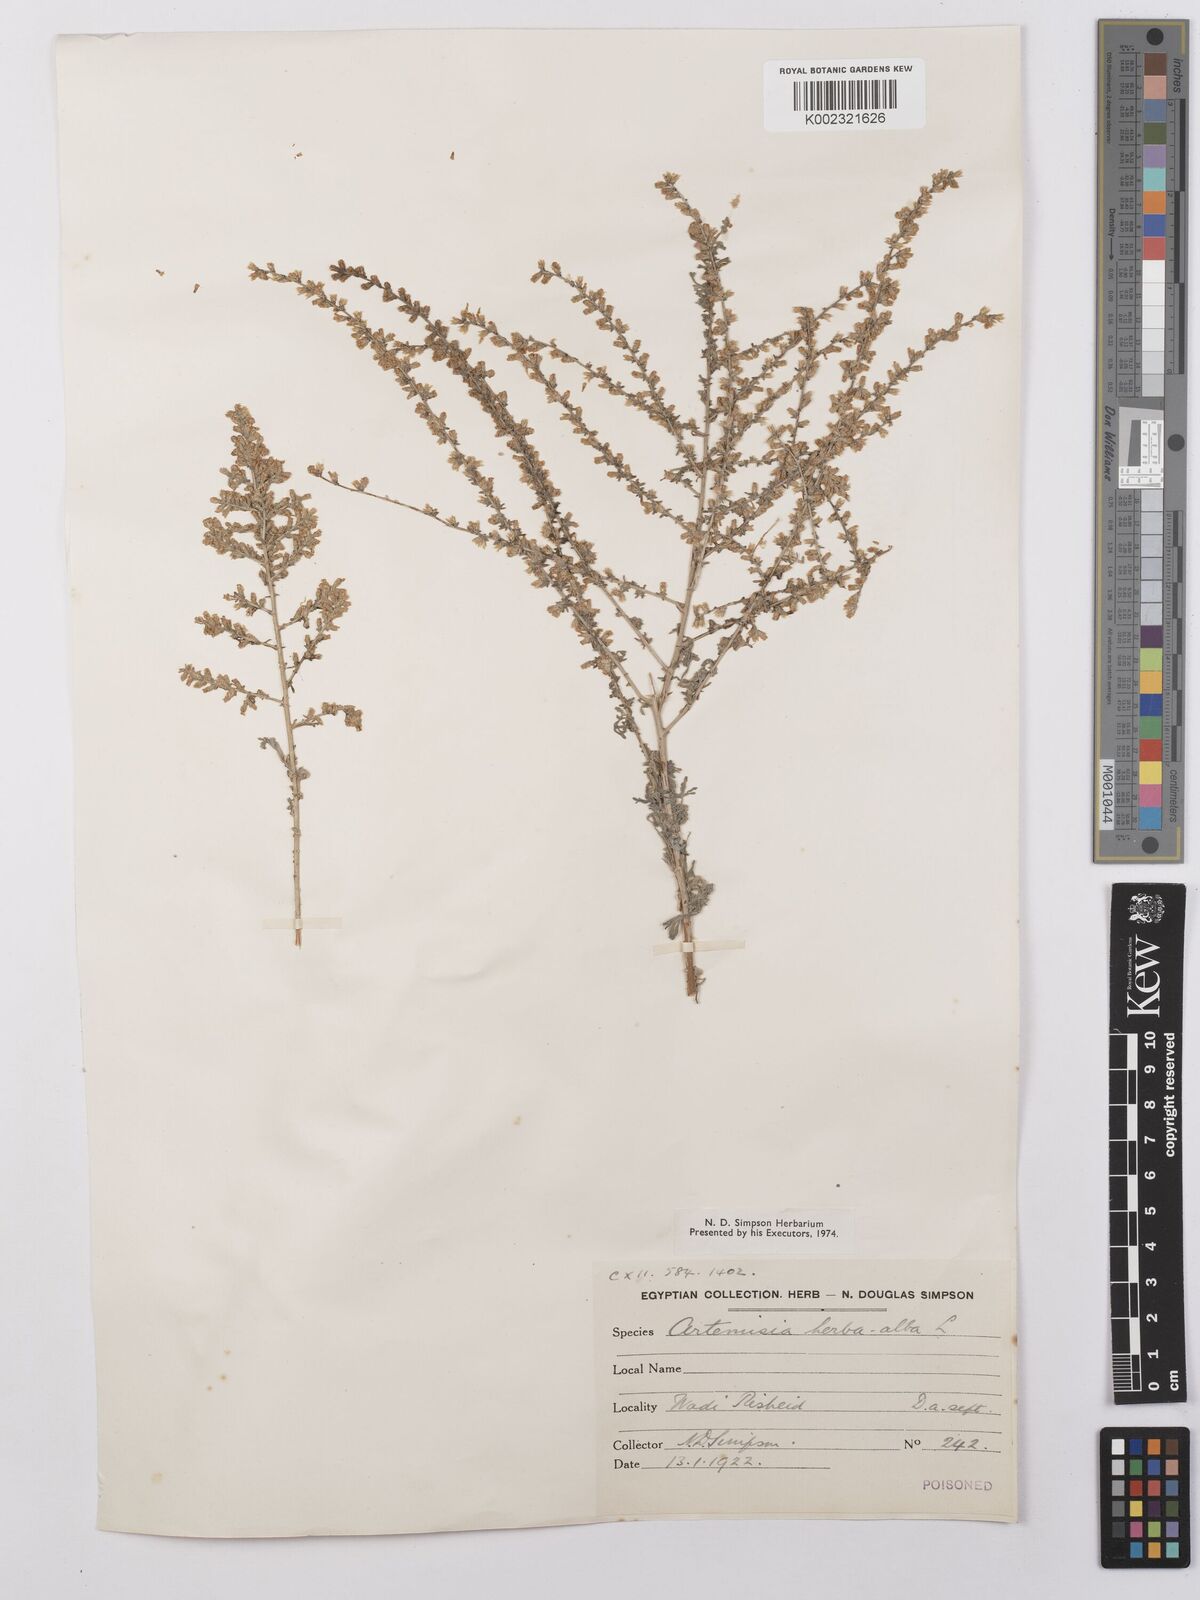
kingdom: Plantae
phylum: Tracheophyta
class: Magnoliopsida
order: Asterales
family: Asteraceae
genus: Artemisia
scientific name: Artemisia herba-alba
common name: White wormwood
